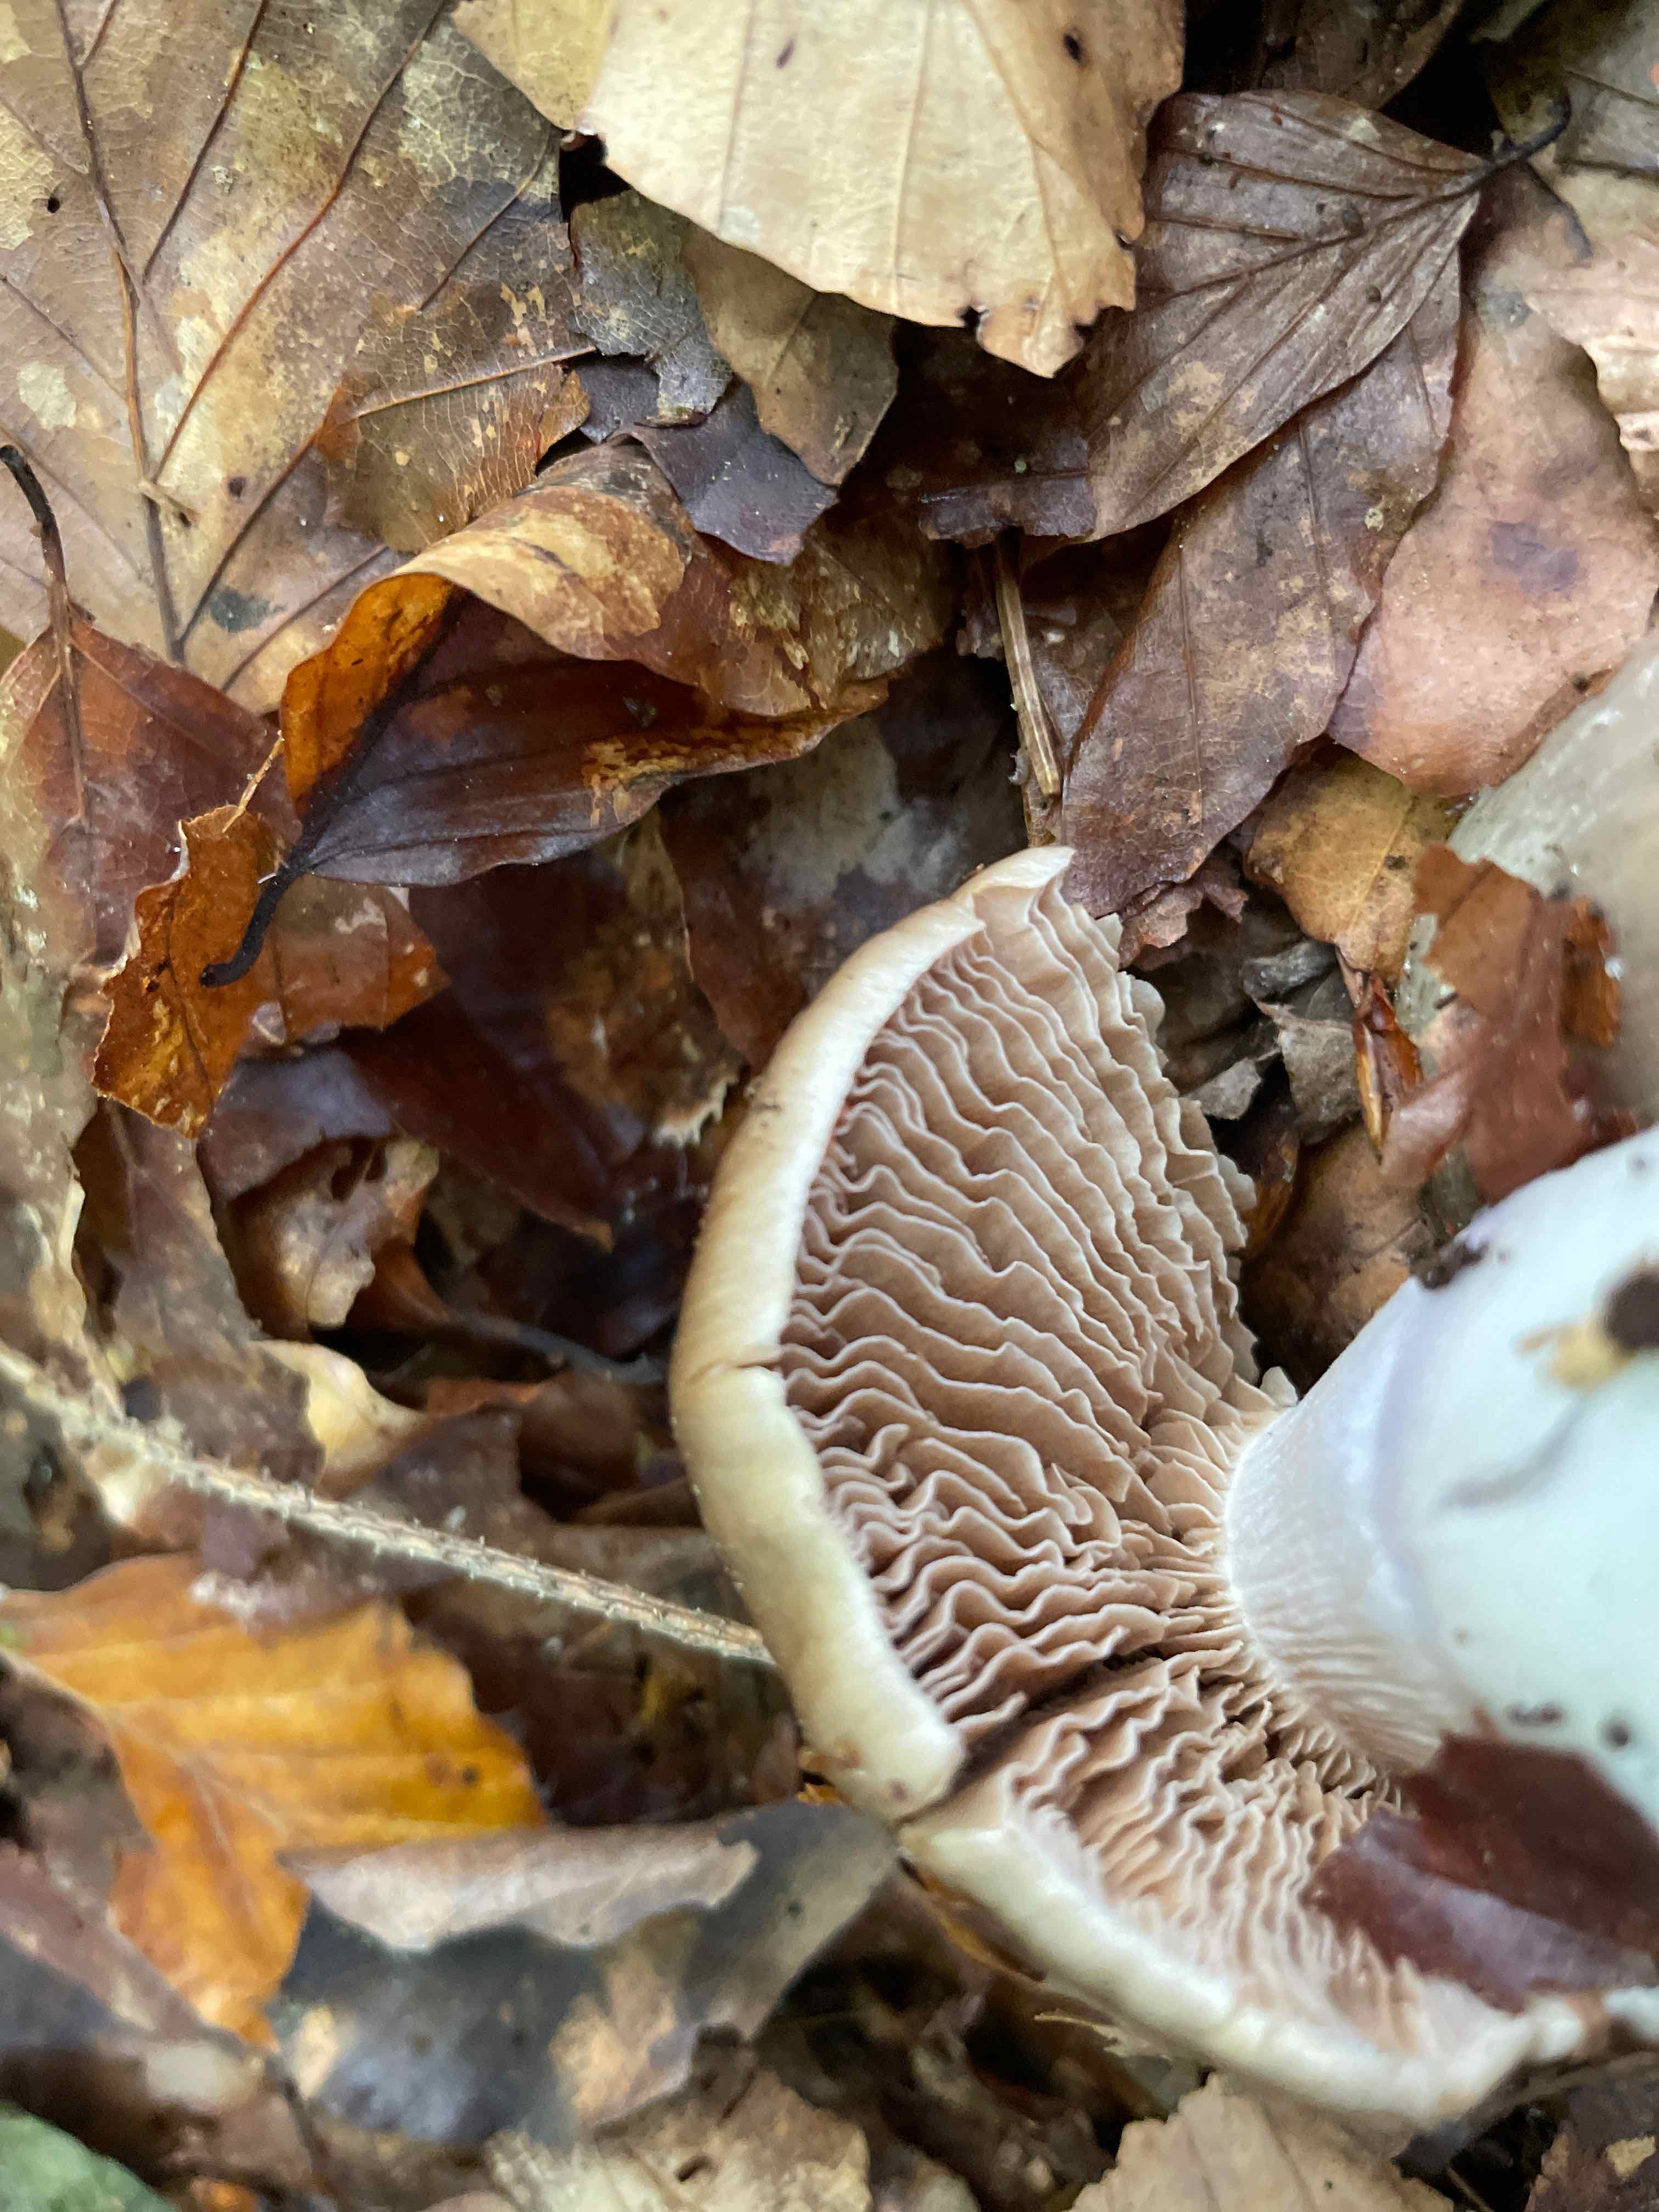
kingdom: Fungi
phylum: Basidiomycota
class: Agaricomycetes
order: Agaricales
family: Cortinariaceae
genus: Cortinarius
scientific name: Cortinarius
